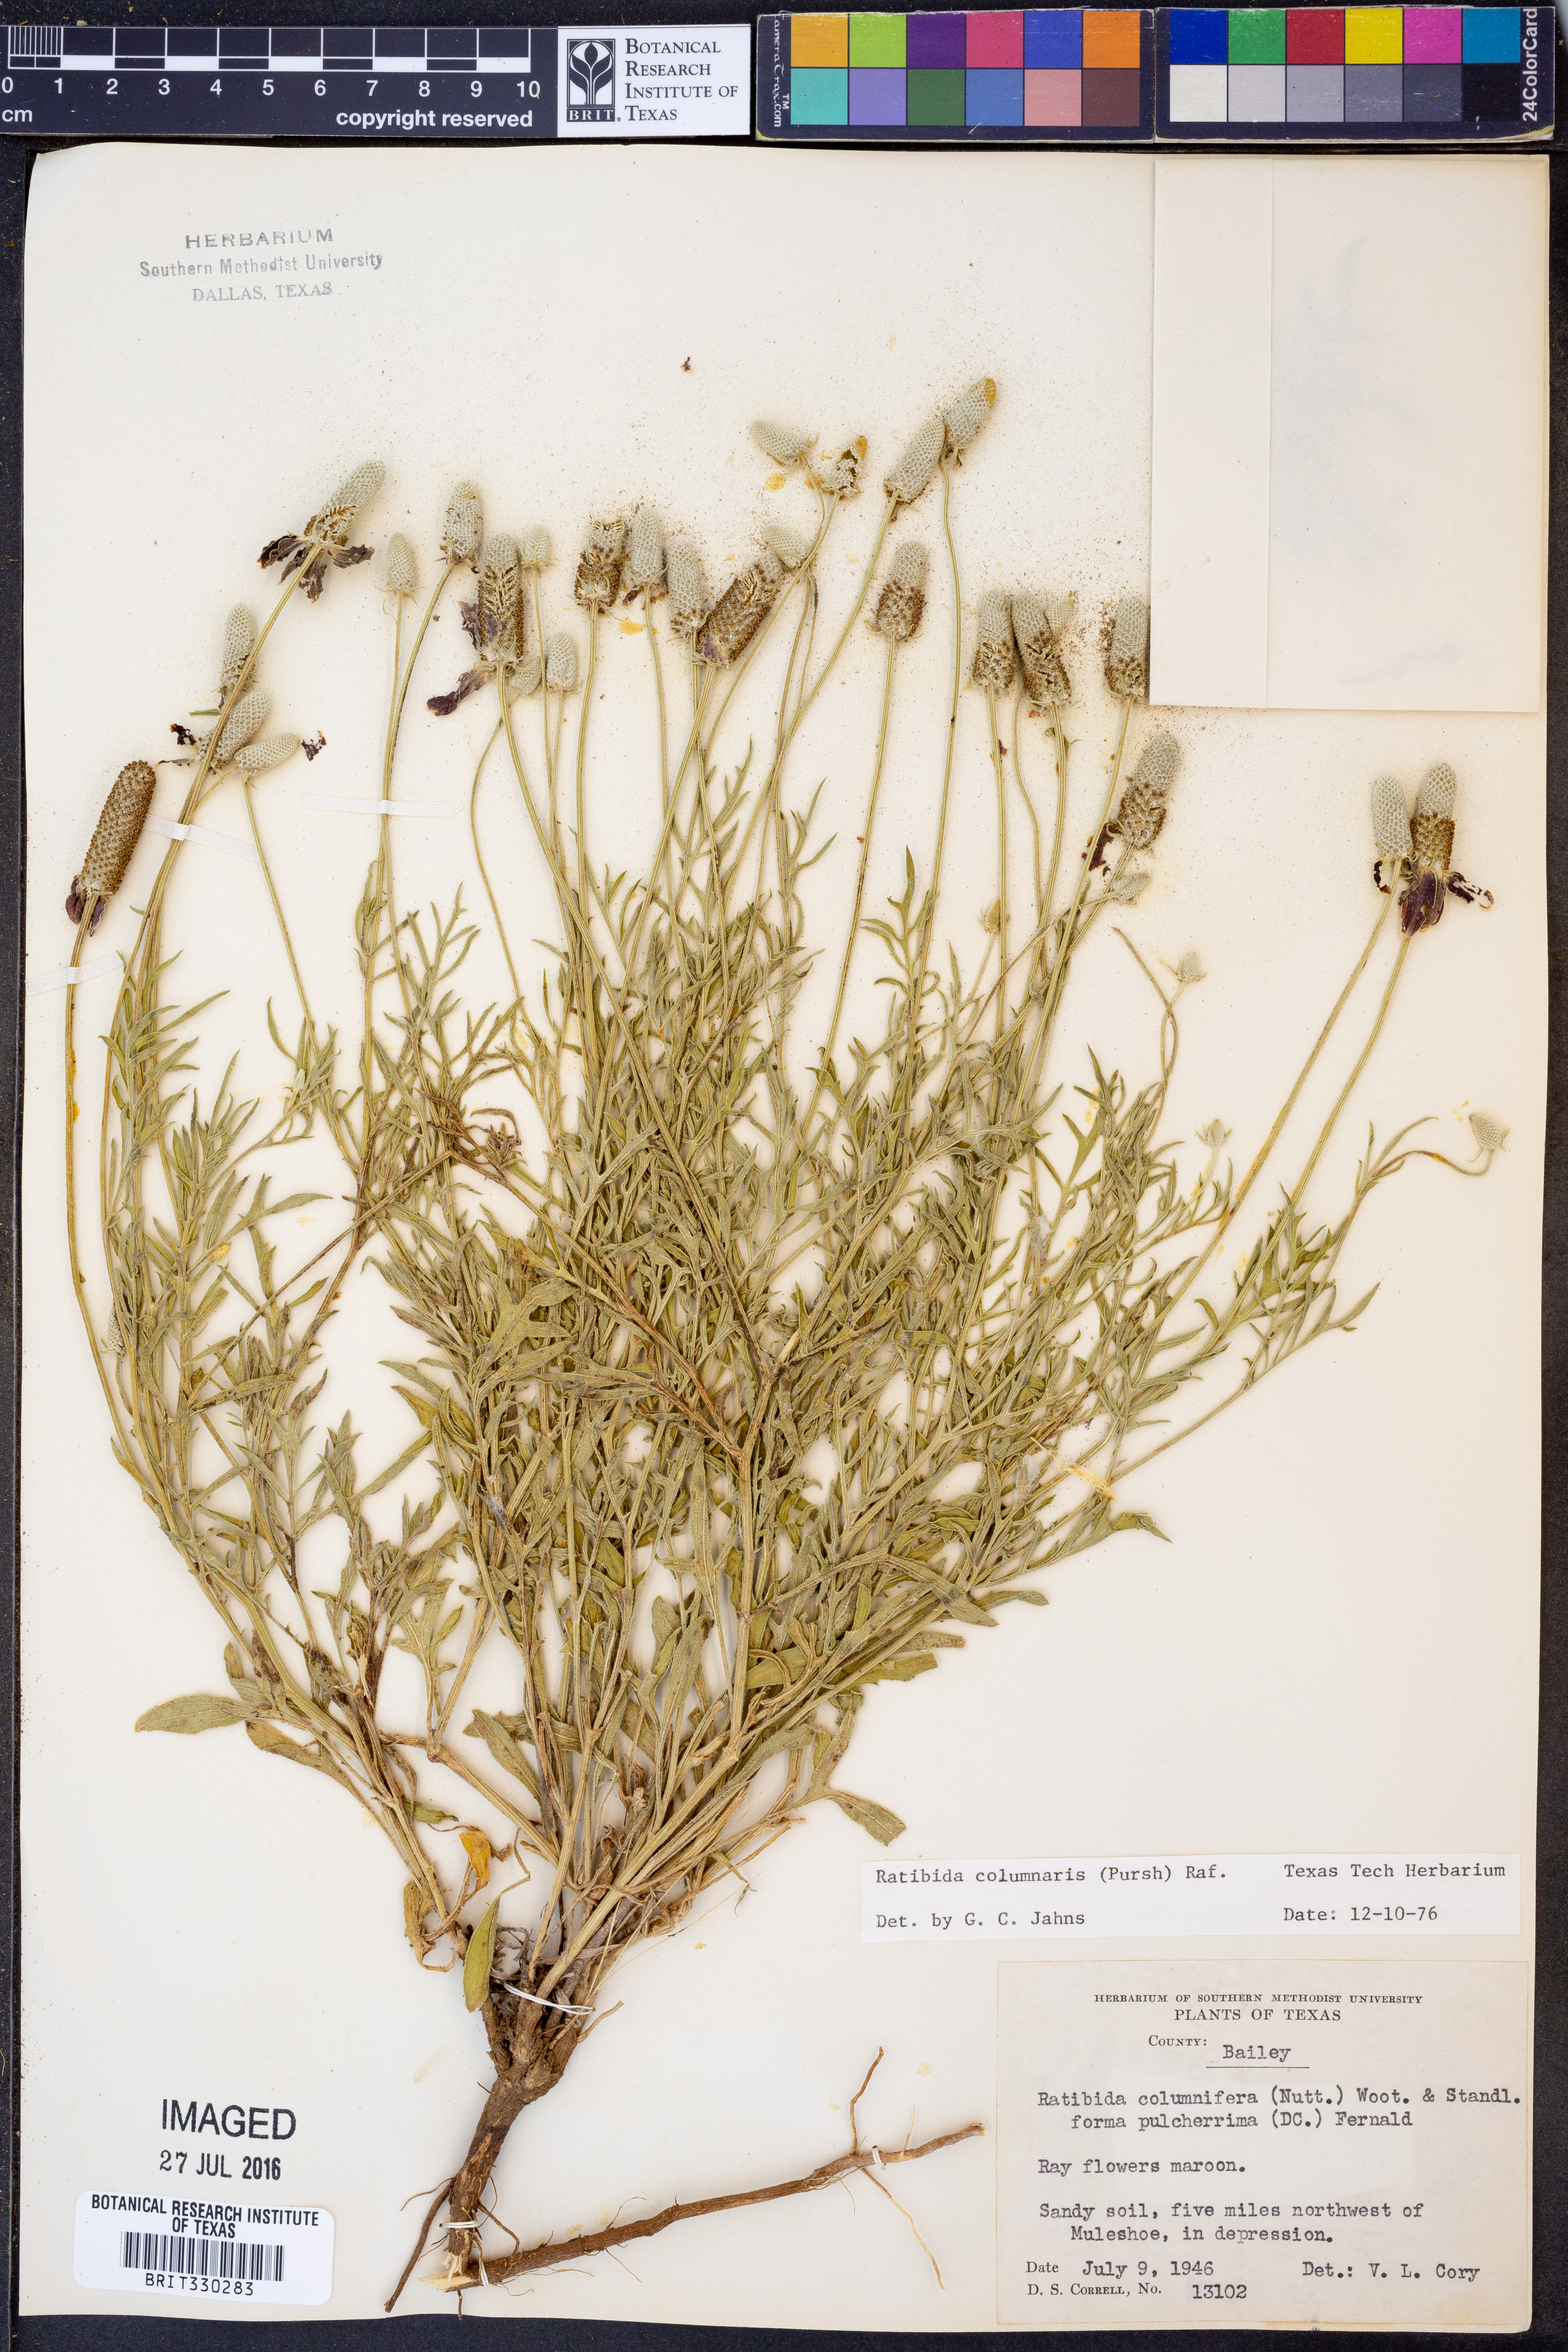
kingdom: Plantae
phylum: Tracheophyta
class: Magnoliopsida
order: Asterales
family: Asteraceae
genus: Ratibida
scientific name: Ratibida columnifera
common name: Prairie coneflower
